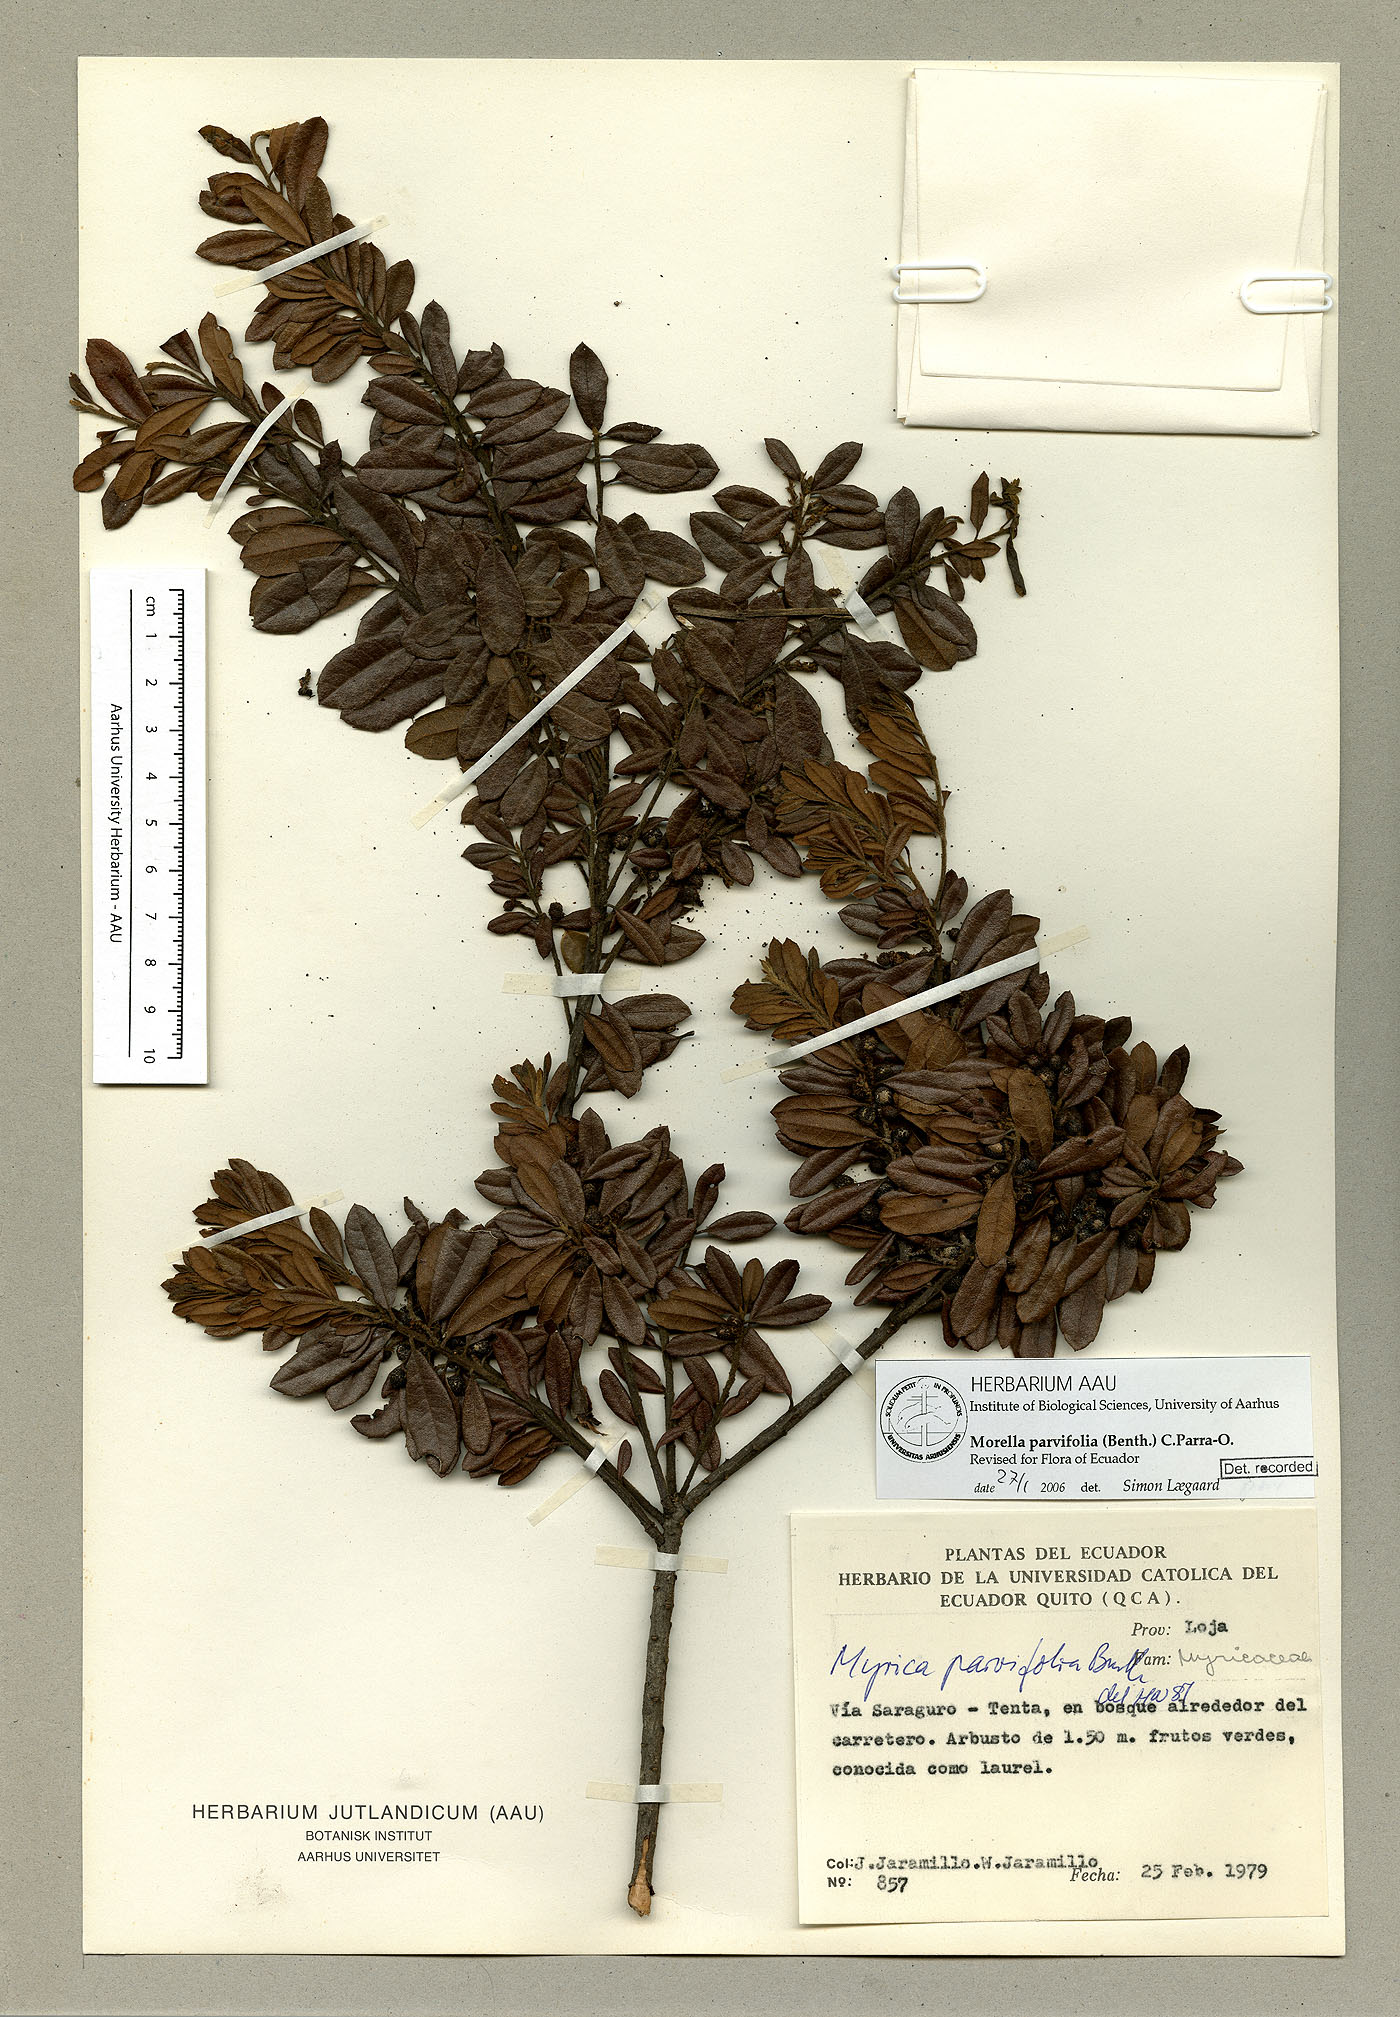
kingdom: Plantae
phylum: Tracheophyta
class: Magnoliopsida
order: Fagales
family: Myricaceae
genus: Morella
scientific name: Morella parvifolia
